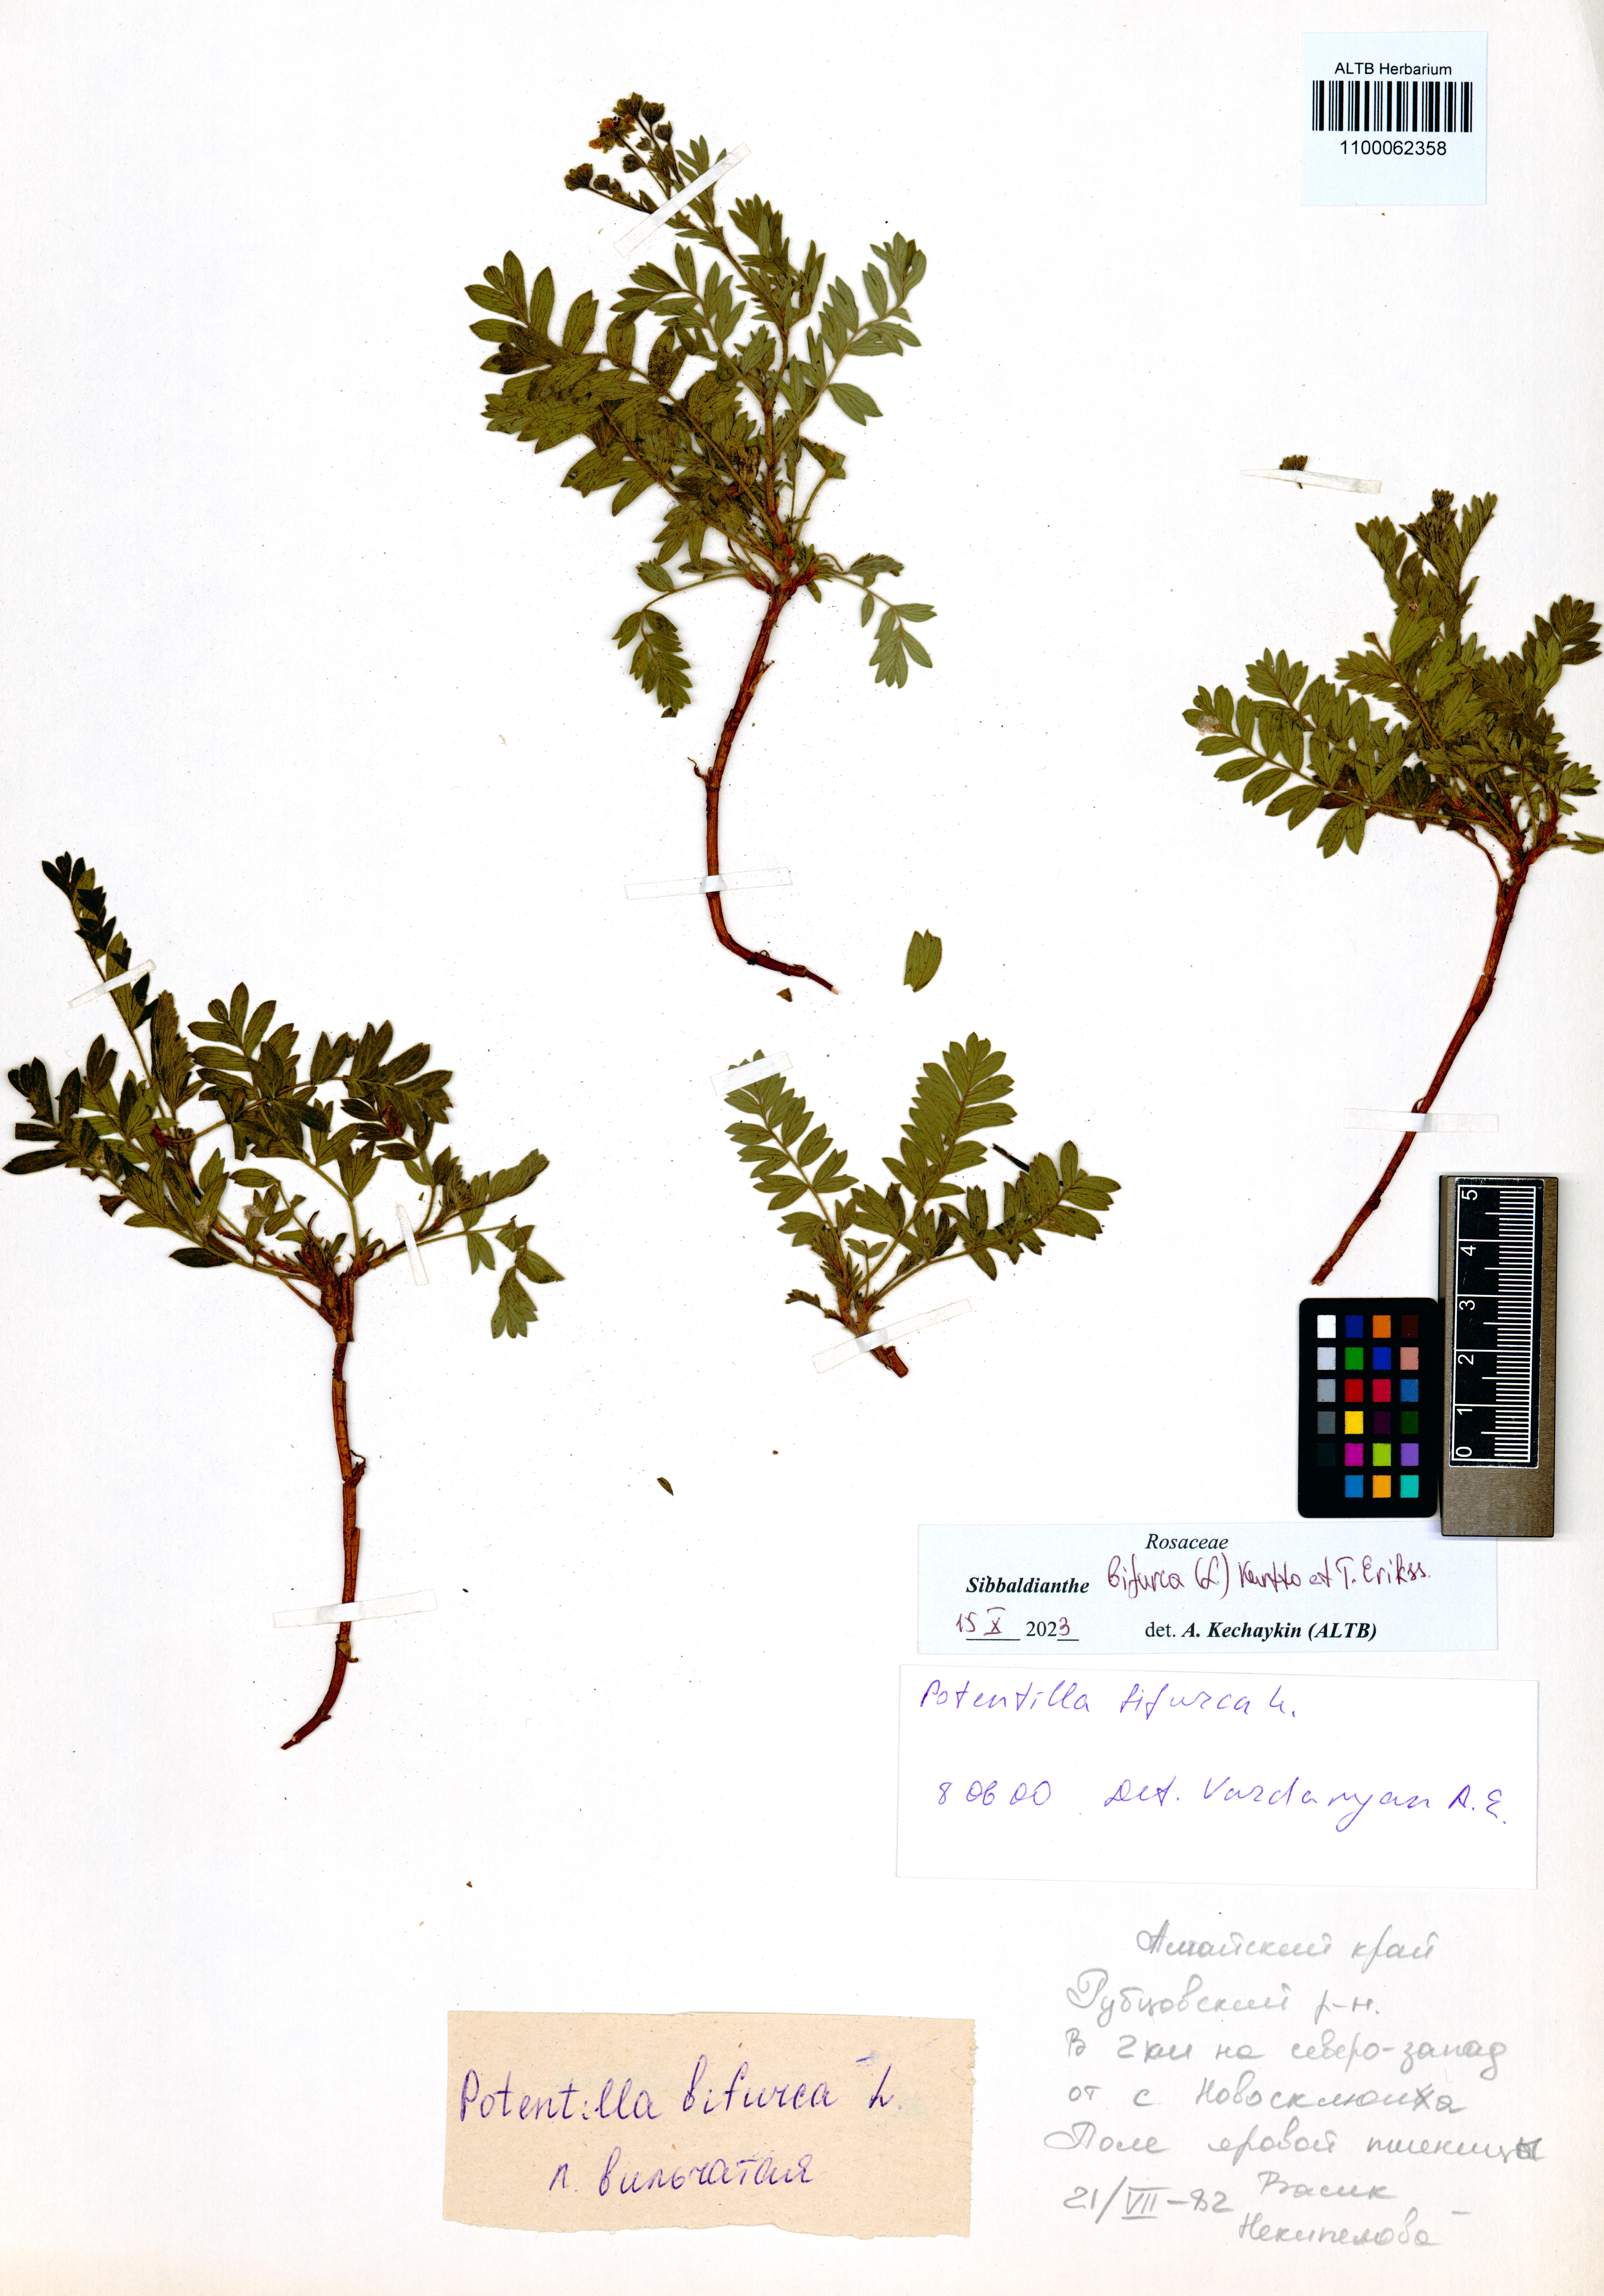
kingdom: Plantae
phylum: Tracheophyta
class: Magnoliopsida
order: Rosales
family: Rosaceae
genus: Sibbaldianthe
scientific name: Sibbaldianthe bifurca
